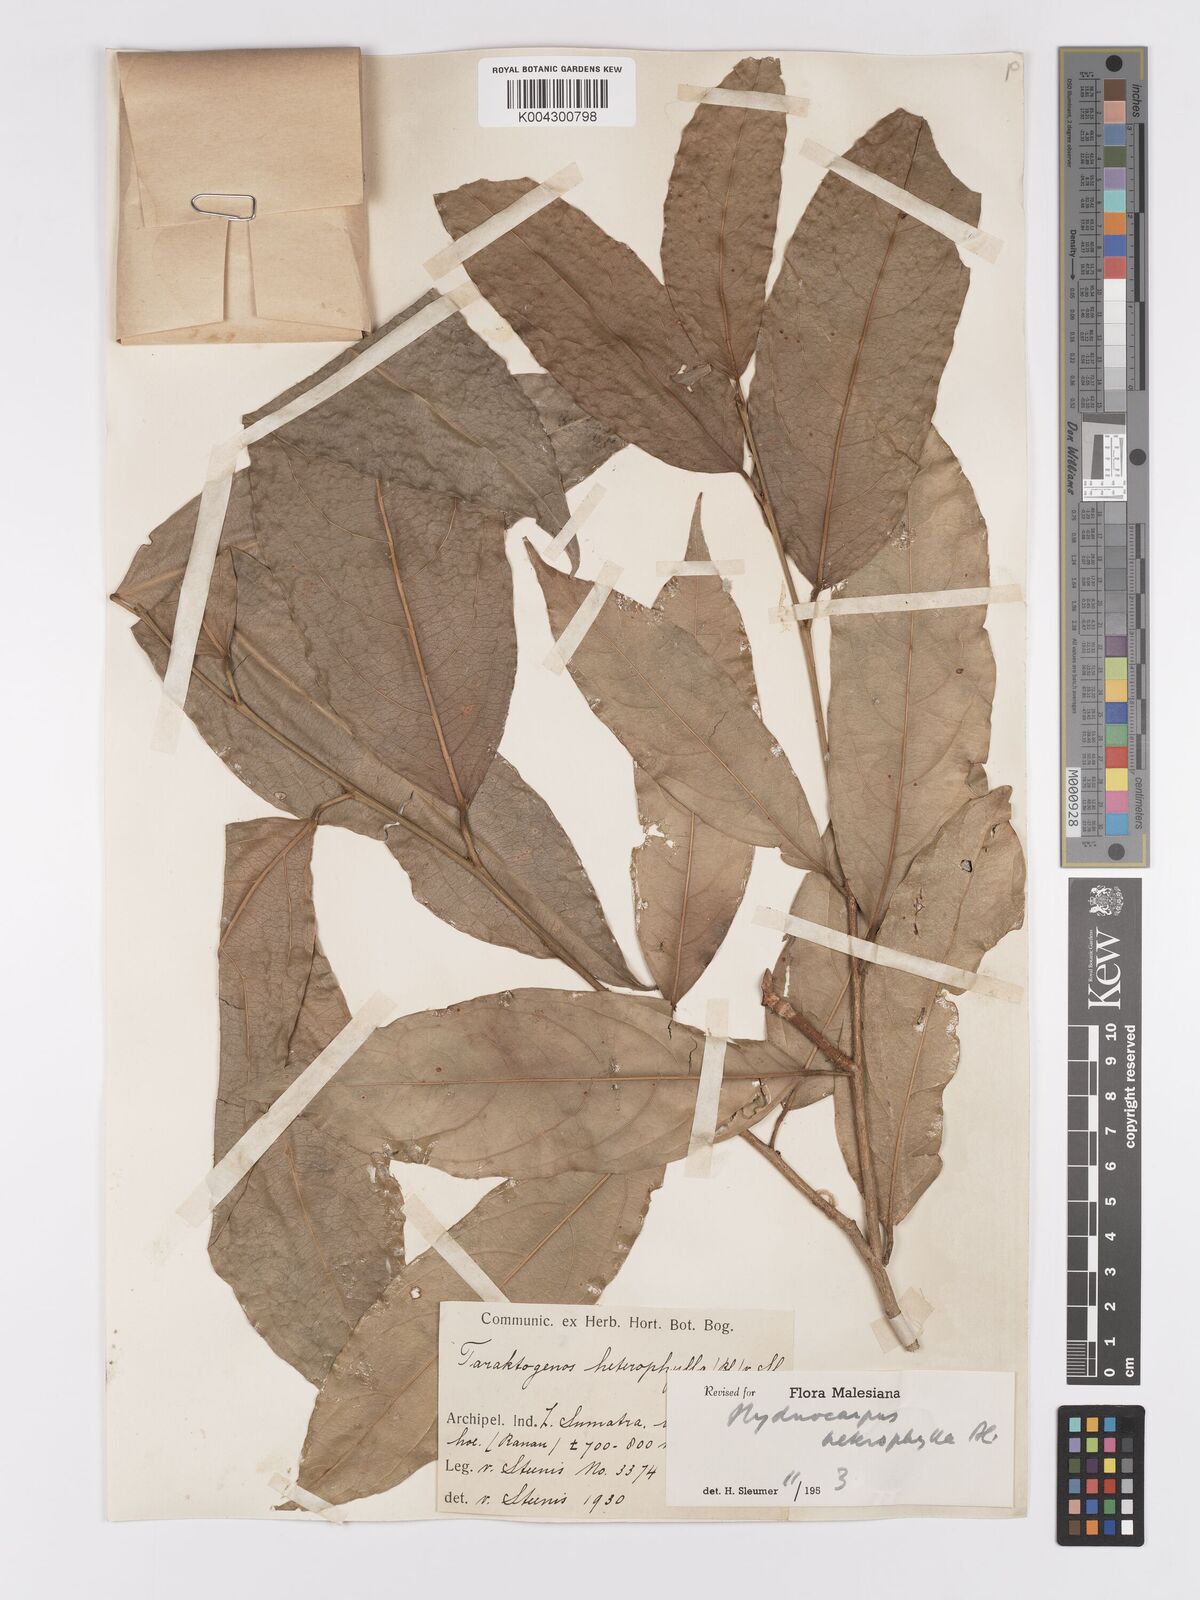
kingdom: Plantae
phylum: Tracheophyta
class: Magnoliopsida
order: Malpighiales
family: Achariaceae
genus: Hydnocarpus
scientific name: Hydnocarpus heterophyllus
